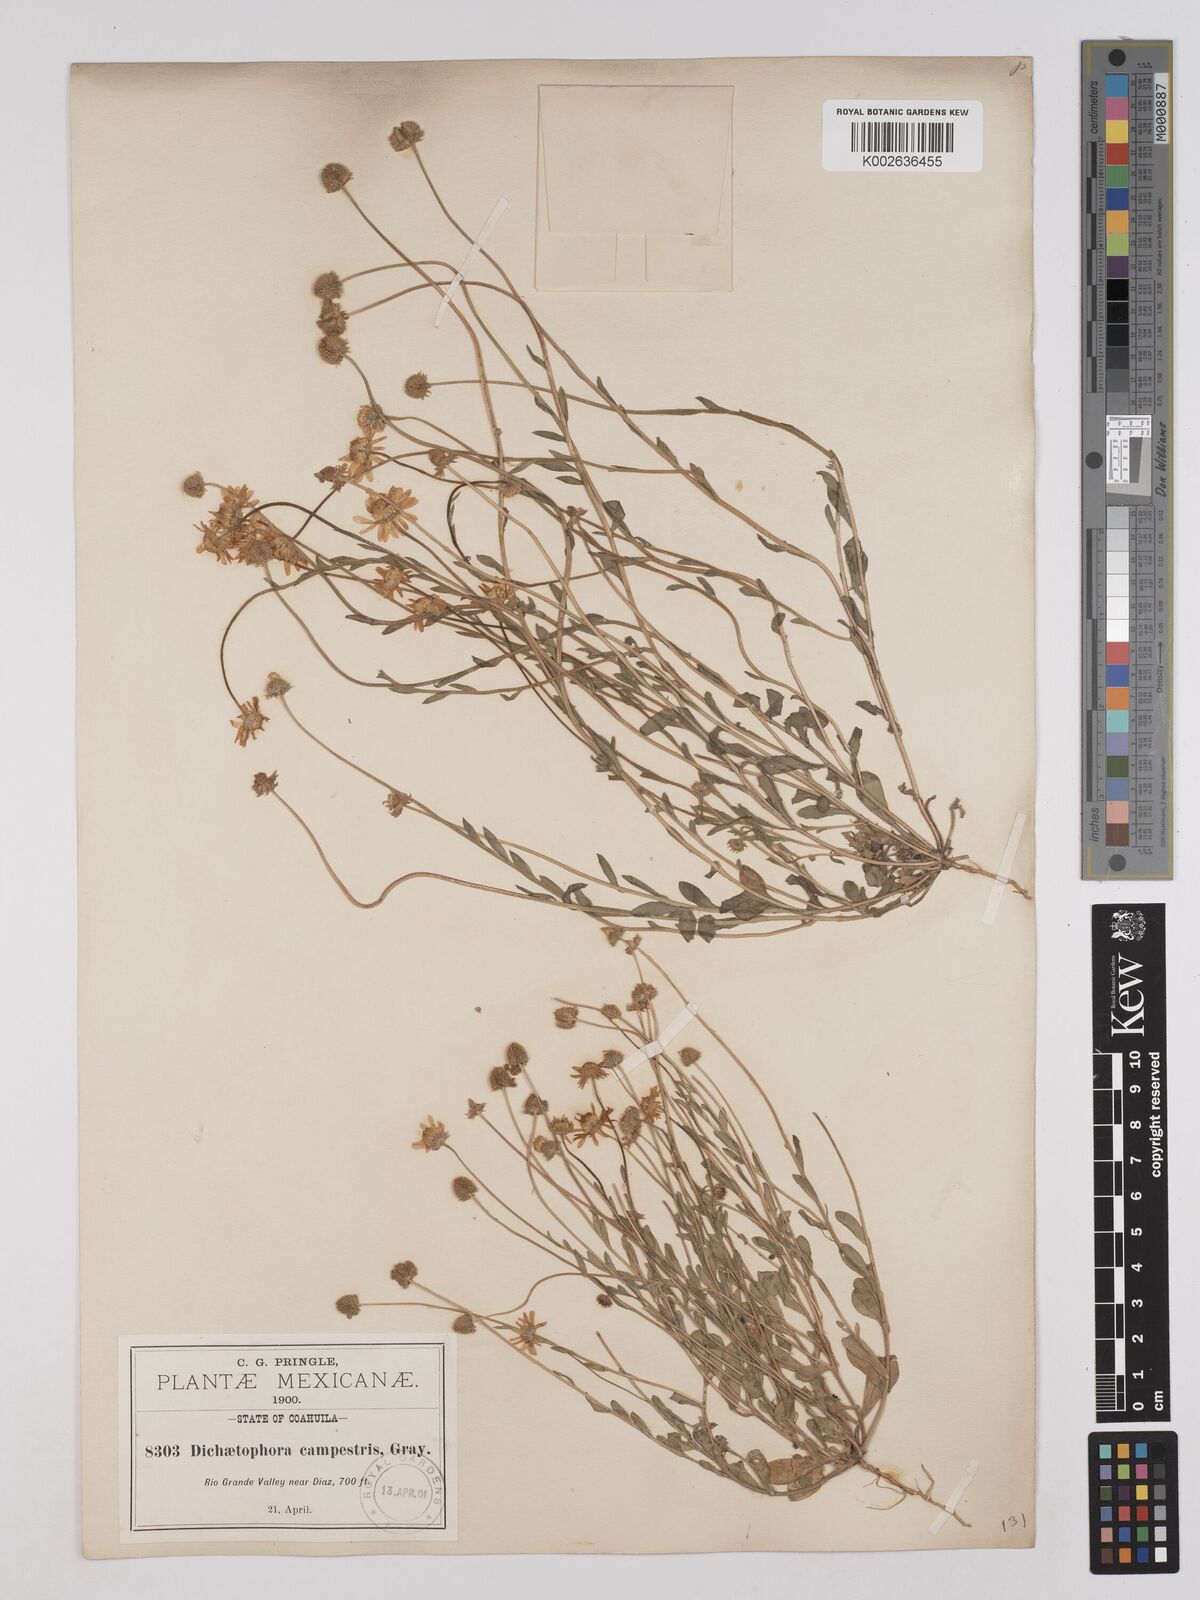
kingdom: Plantae
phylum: Tracheophyta
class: Magnoliopsida
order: Asterales
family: Asteraceae
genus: Dichaetophora
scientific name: Dichaetophora campestris
